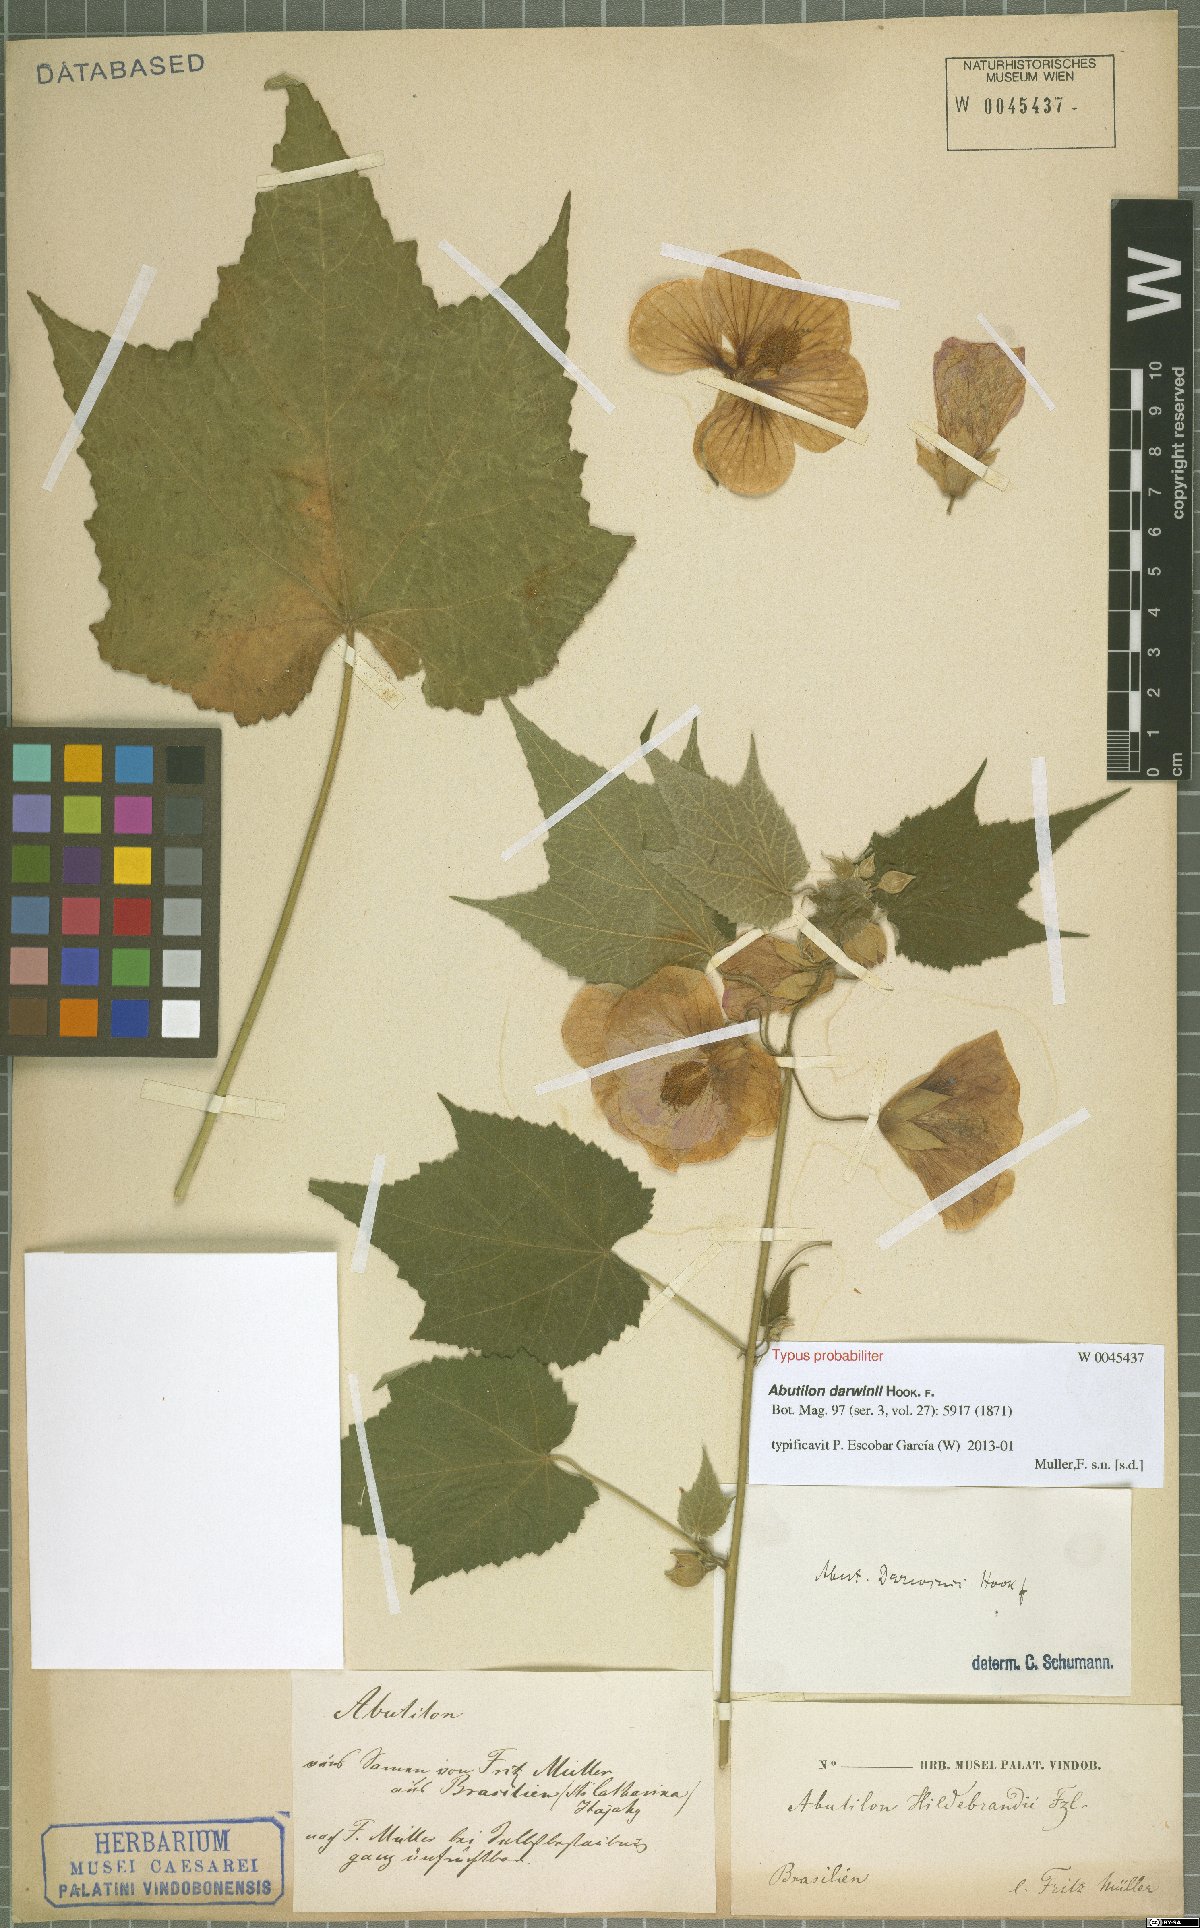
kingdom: Plantae
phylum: Tracheophyta
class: Magnoliopsida
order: Malvales
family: Malvaceae
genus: Callianthe
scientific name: Callianthe darwinii
